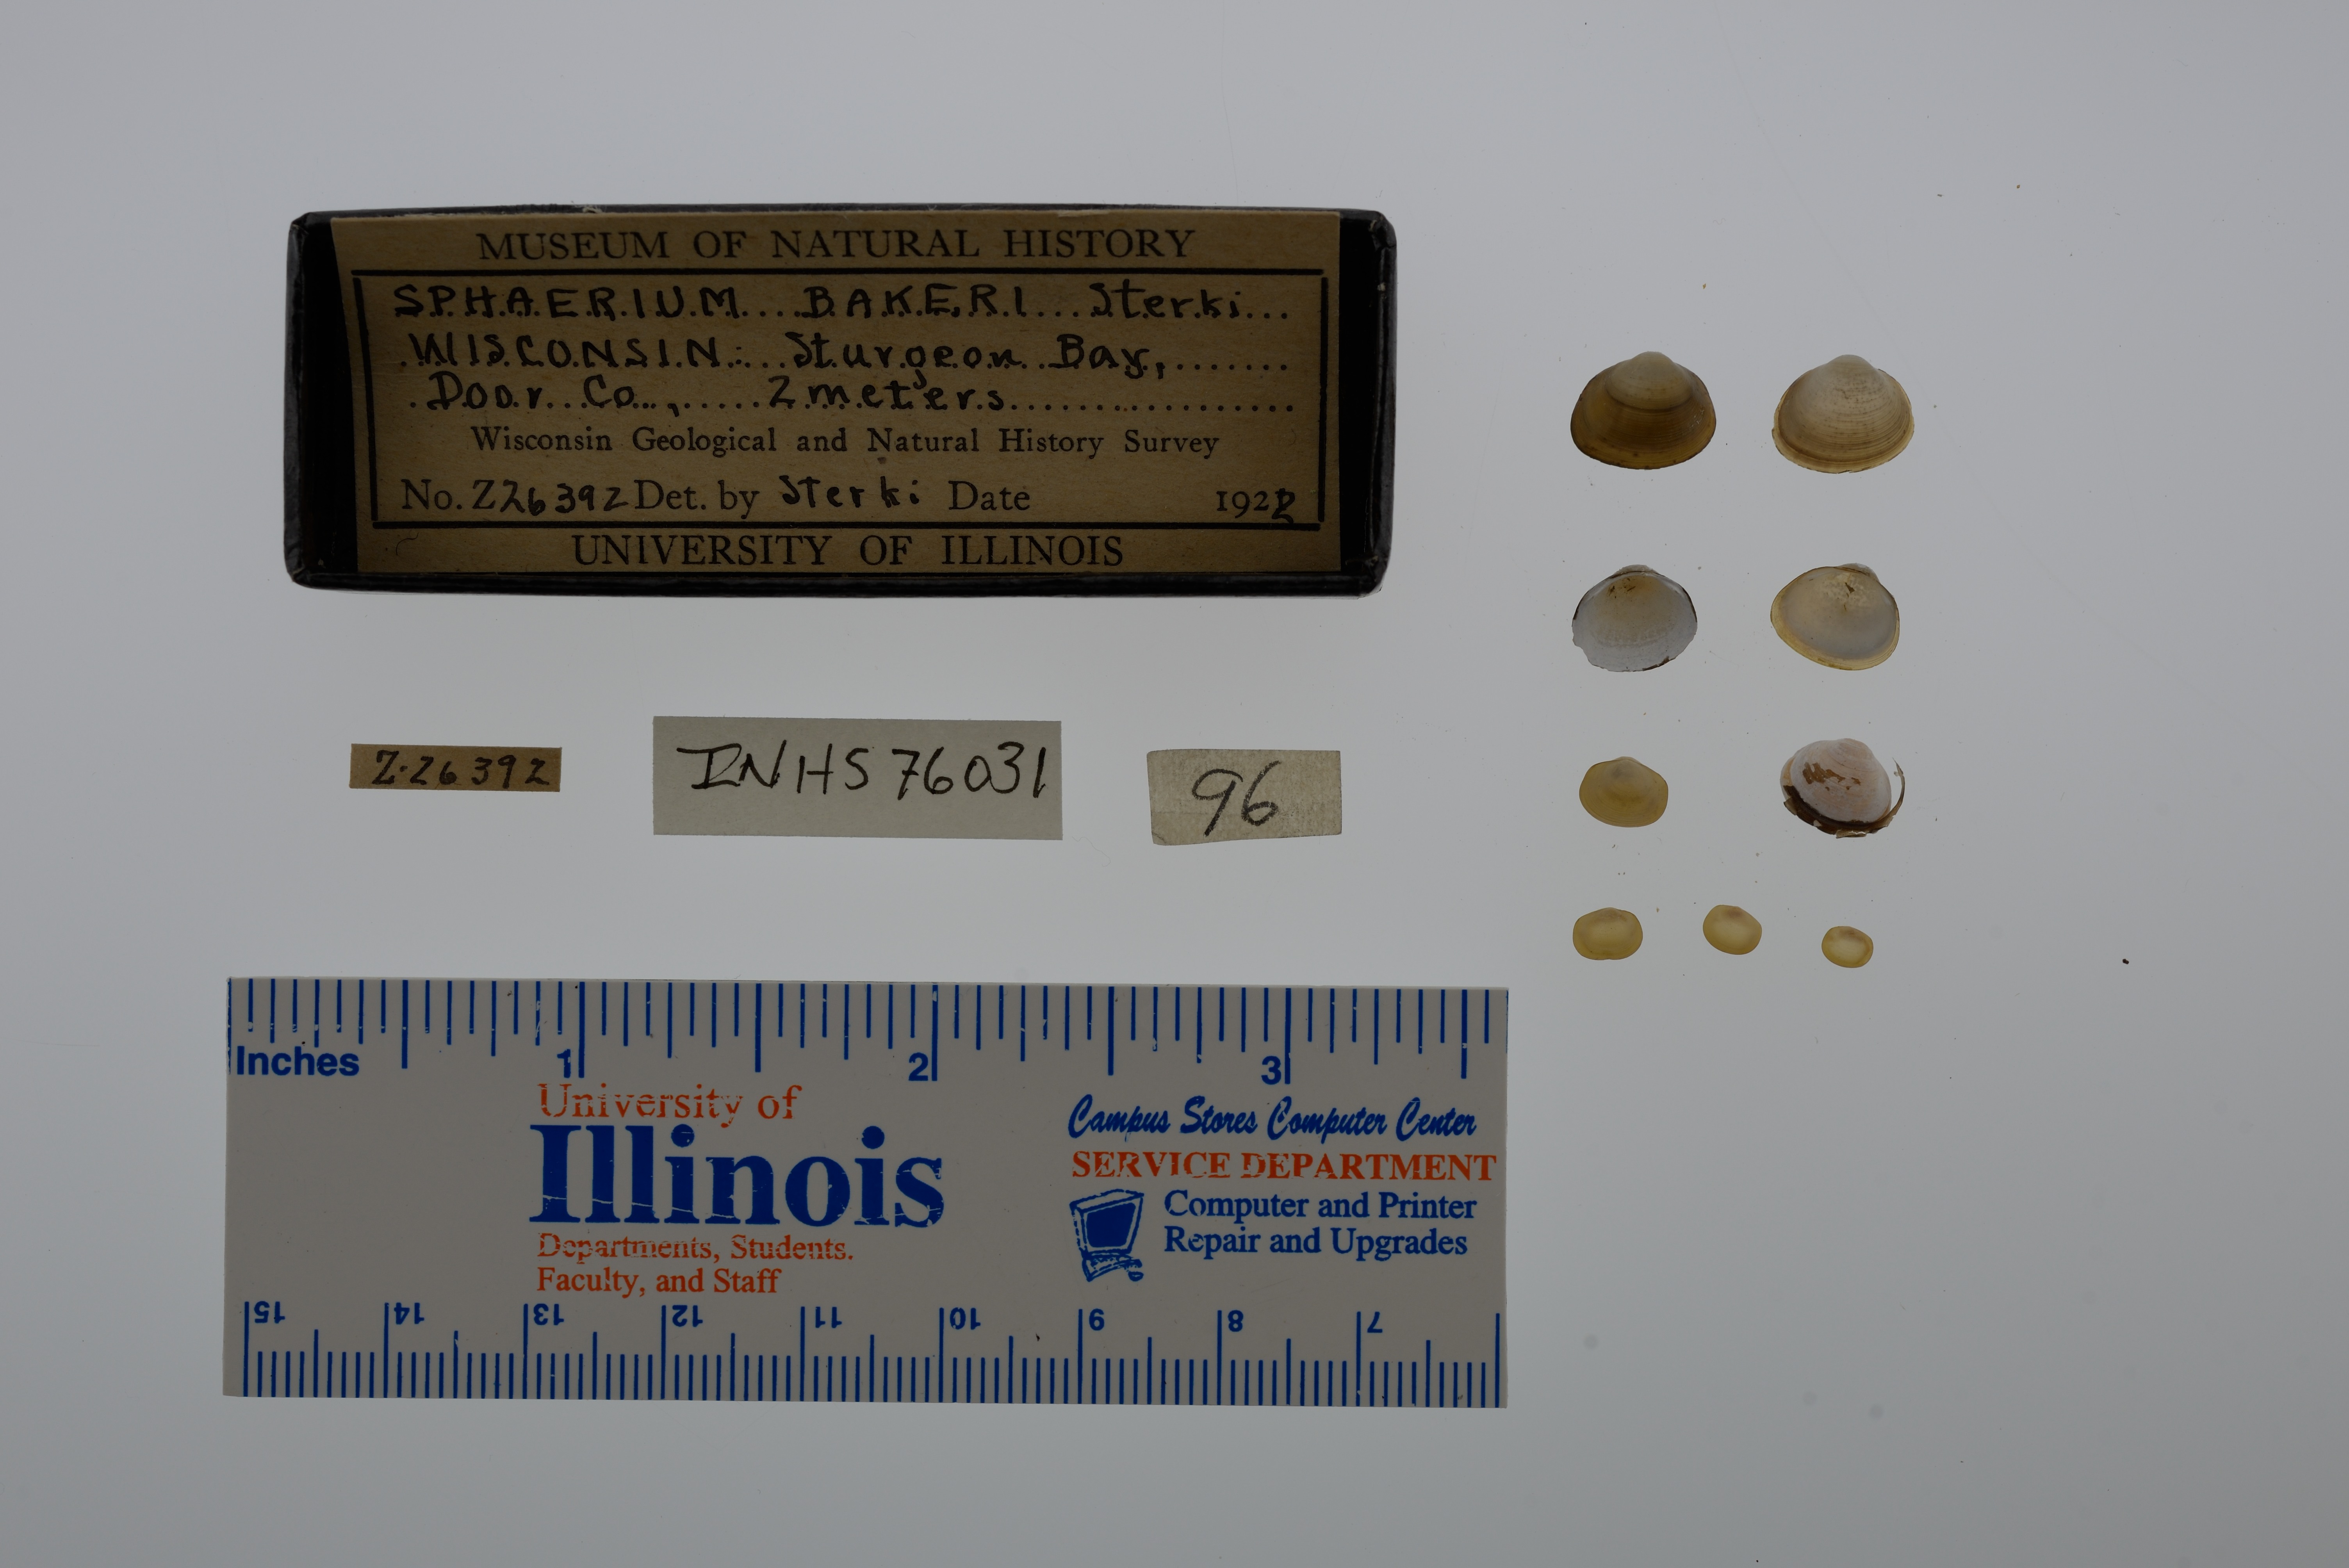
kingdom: Animalia
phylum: Mollusca
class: Bivalvia
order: Sphaeriida
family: Sphaeriidae
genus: Sphaerium
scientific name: Sphaerium striatinum
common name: Striated fingernailclam
